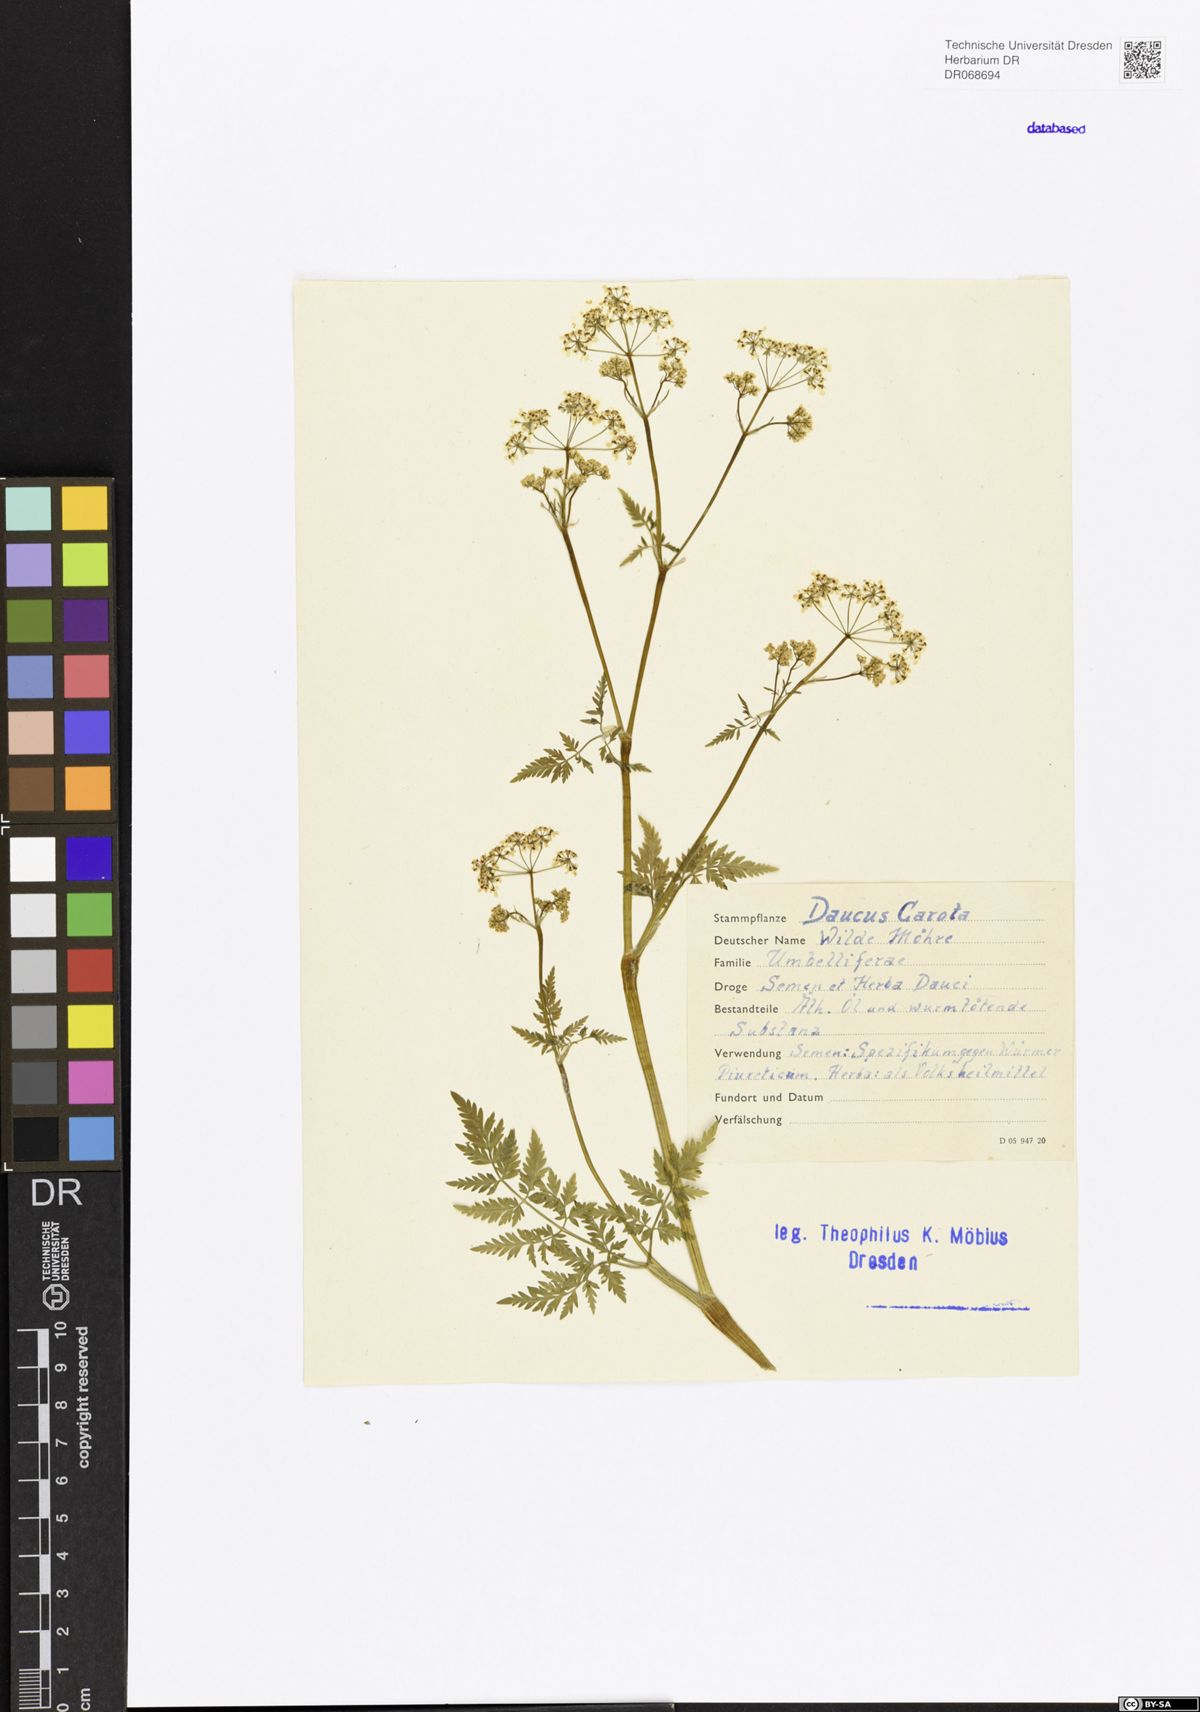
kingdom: Plantae
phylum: Tracheophyta
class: Magnoliopsida
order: Apiales
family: Apiaceae
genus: Daucus
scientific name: Daucus carota
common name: Wild carrot
